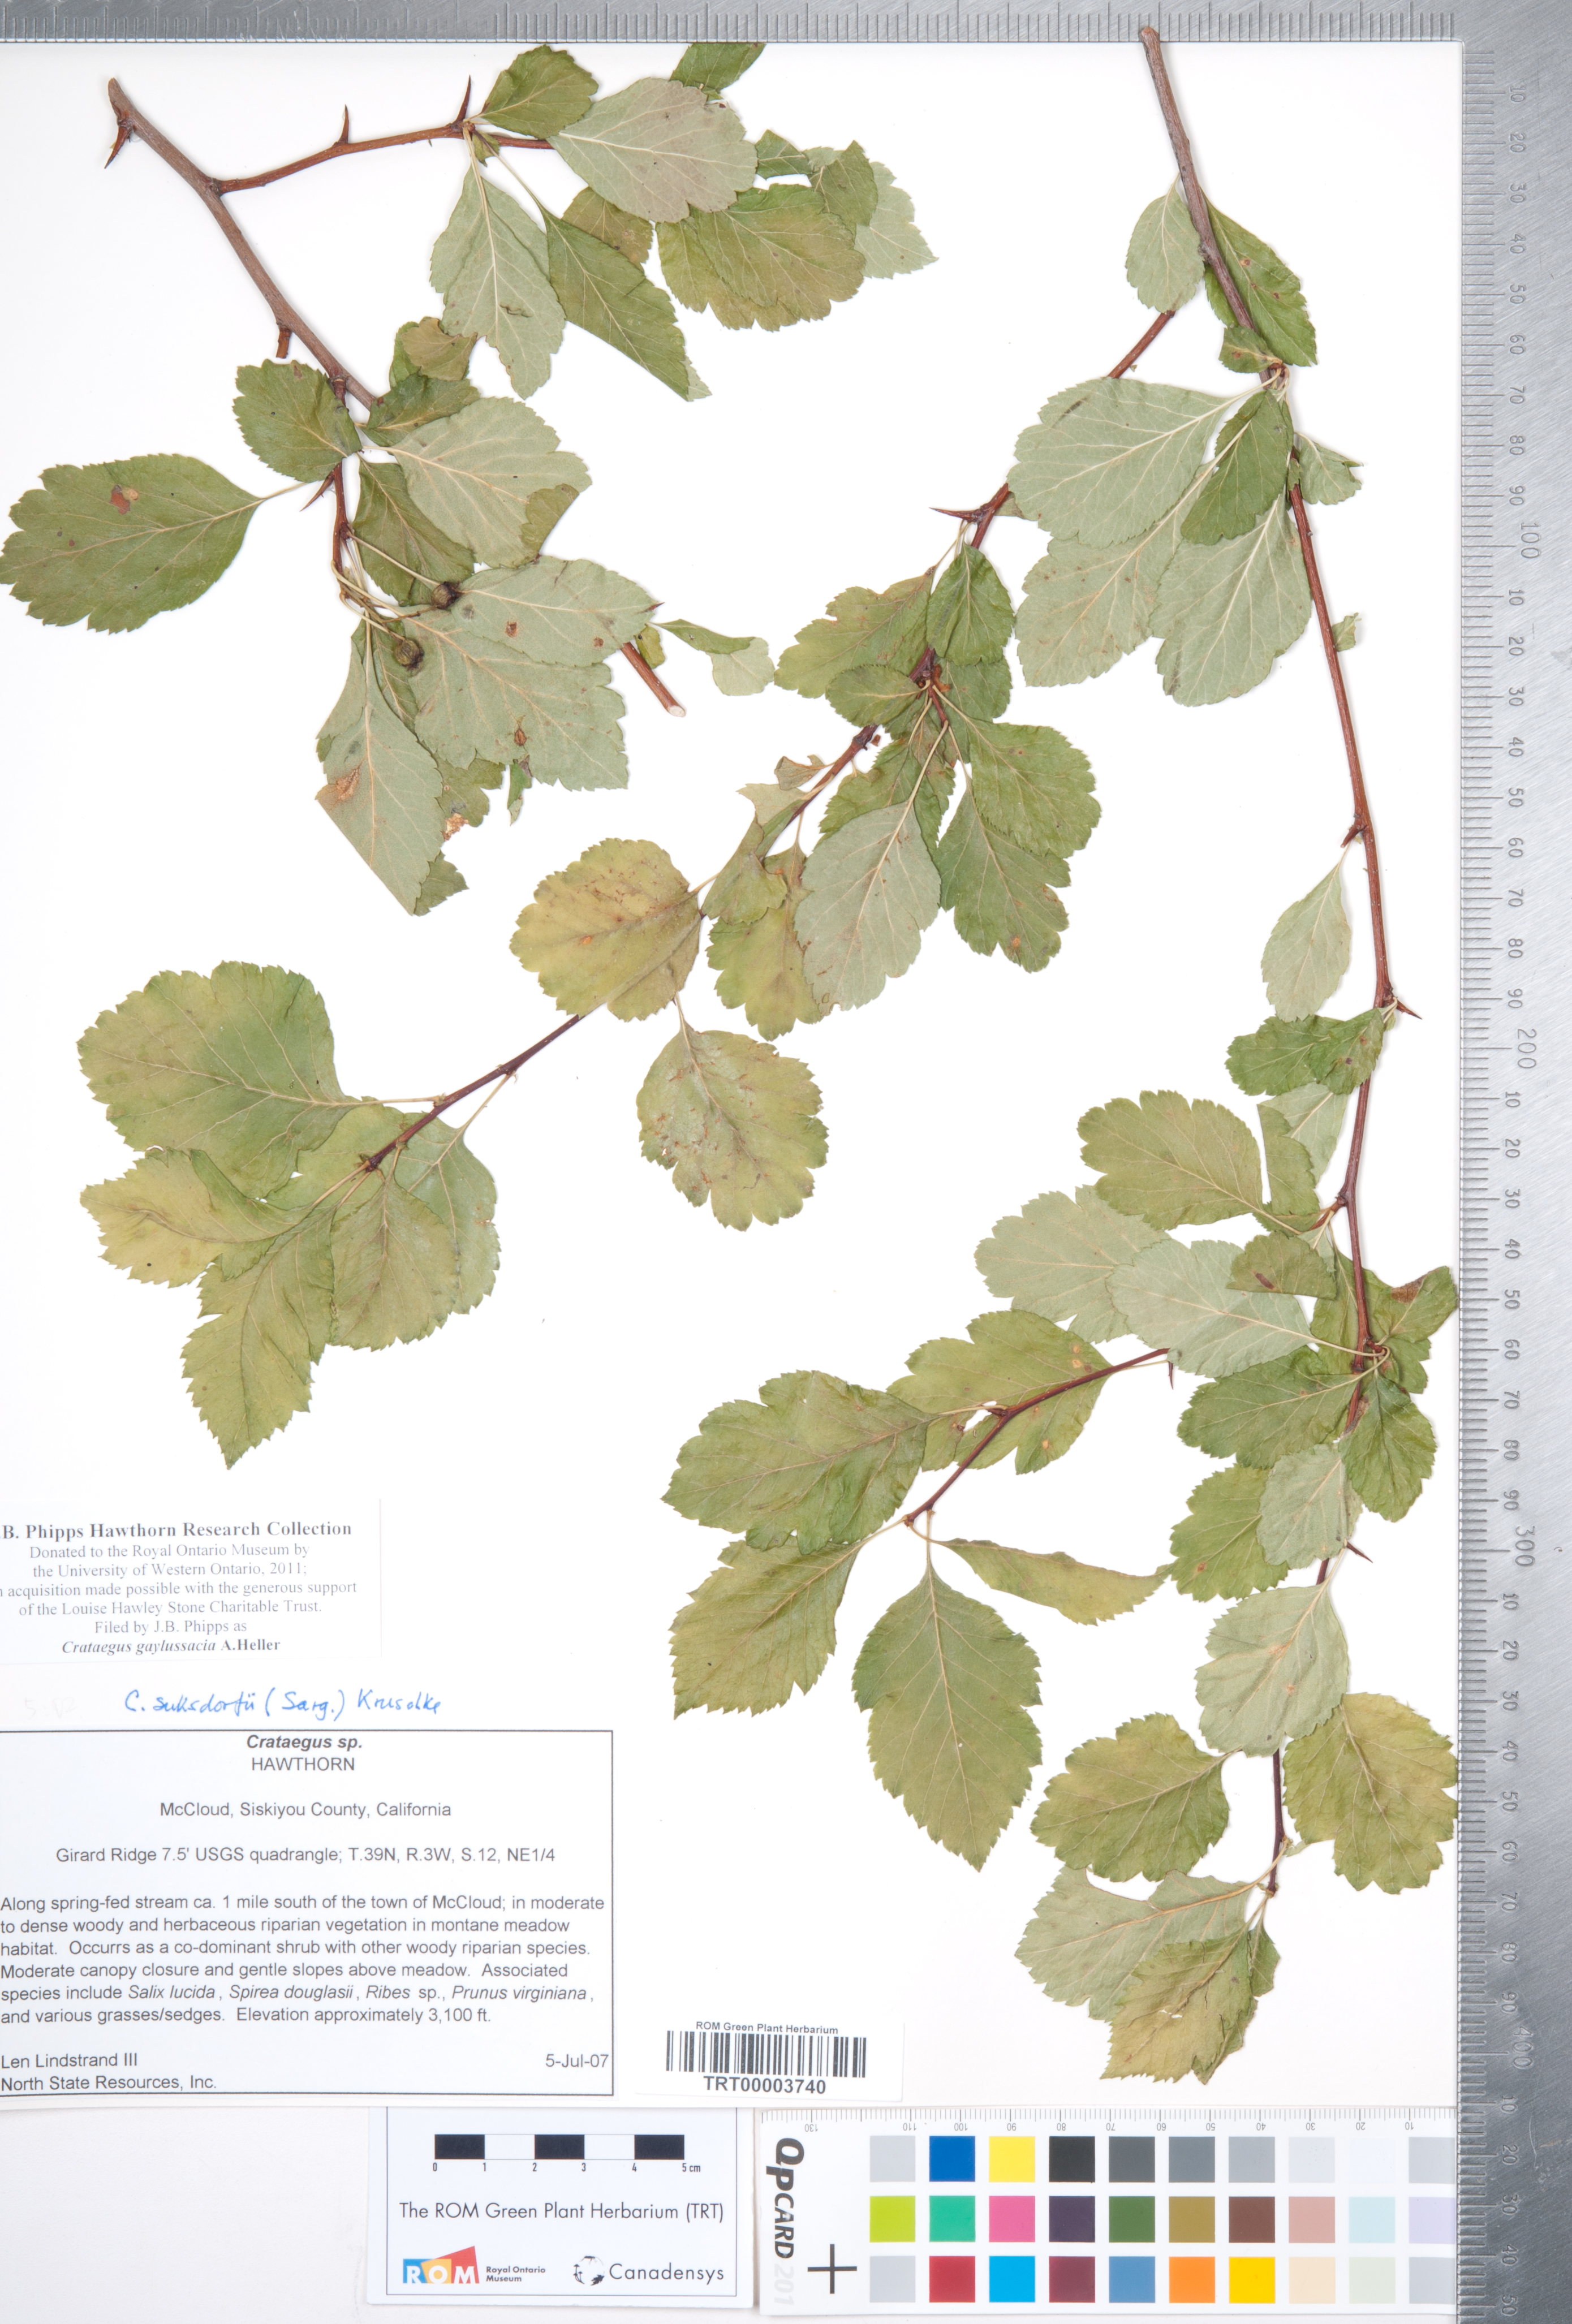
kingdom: Plantae
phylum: Tracheophyta
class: Magnoliopsida
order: Rosales
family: Rosaceae
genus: Crataegus
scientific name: Crataegus gaylussacia
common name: Huckleberry hawthorn
